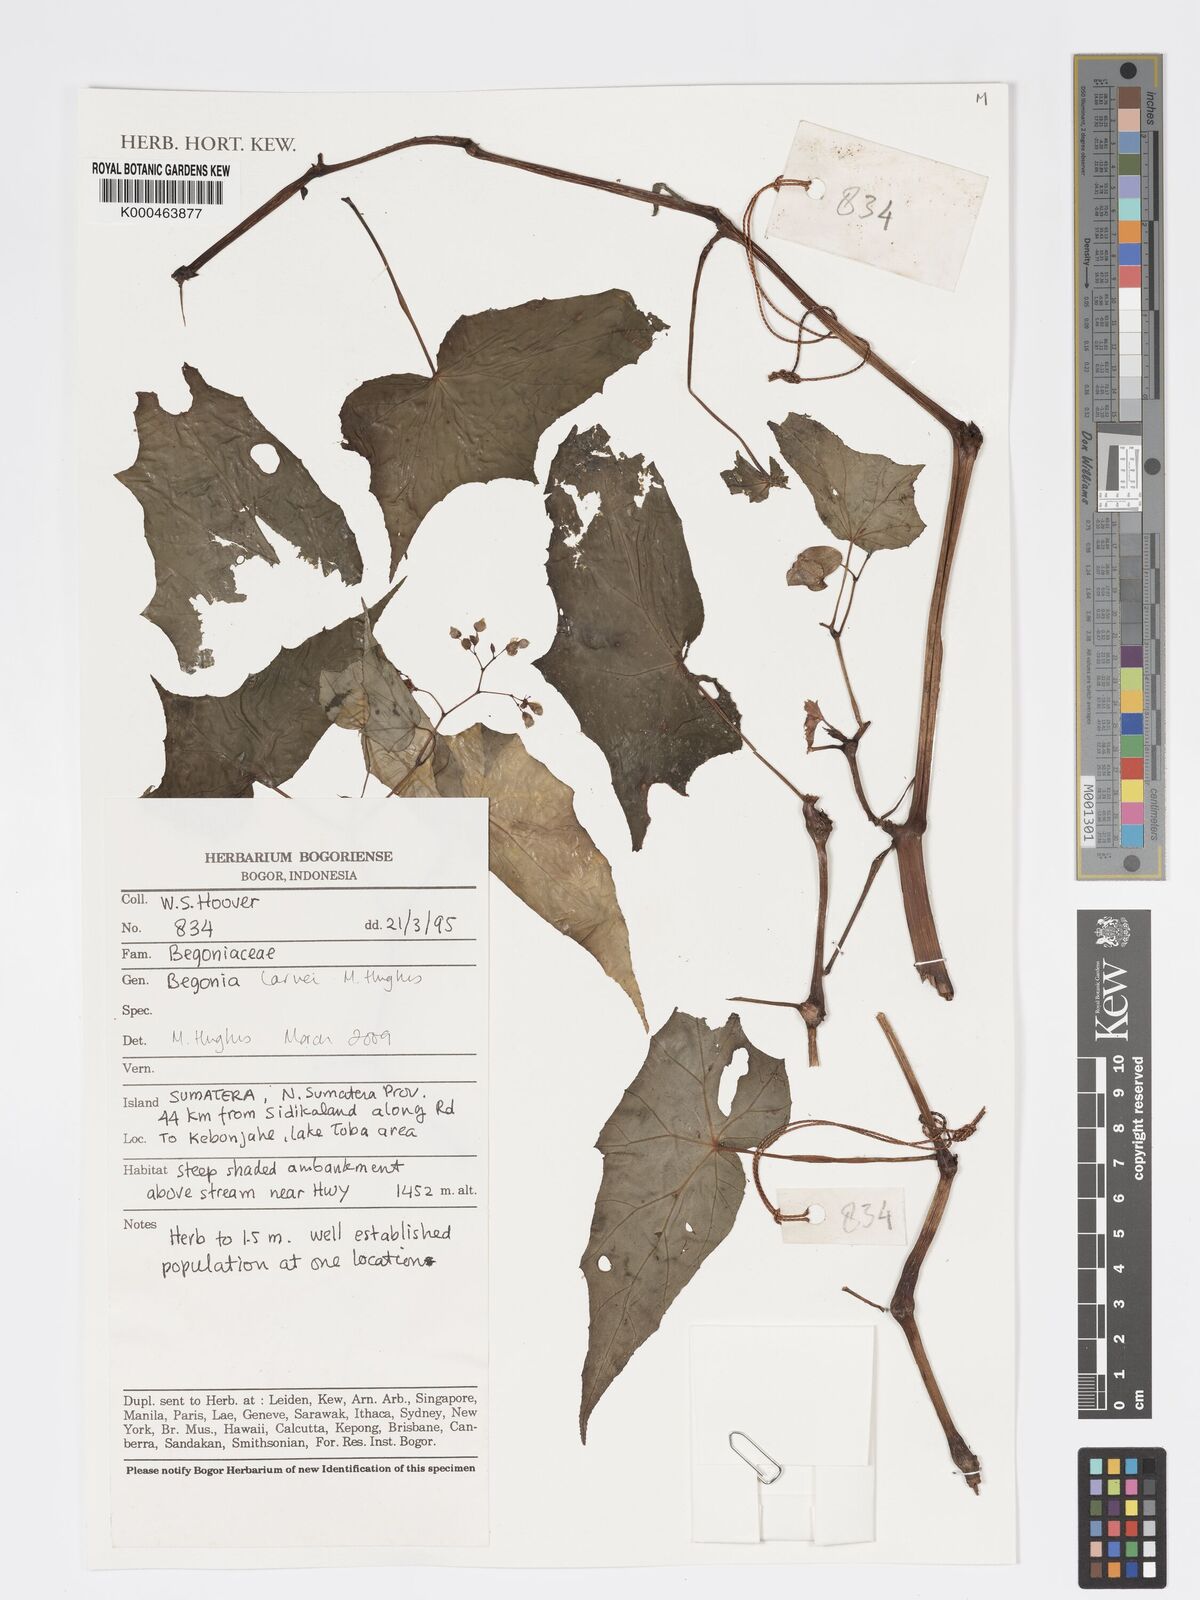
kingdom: Plantae
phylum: Tracheophyta
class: Magnoliopsida
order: Cucurbitales
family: Begoniaceae
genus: Begonia
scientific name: Begonia
